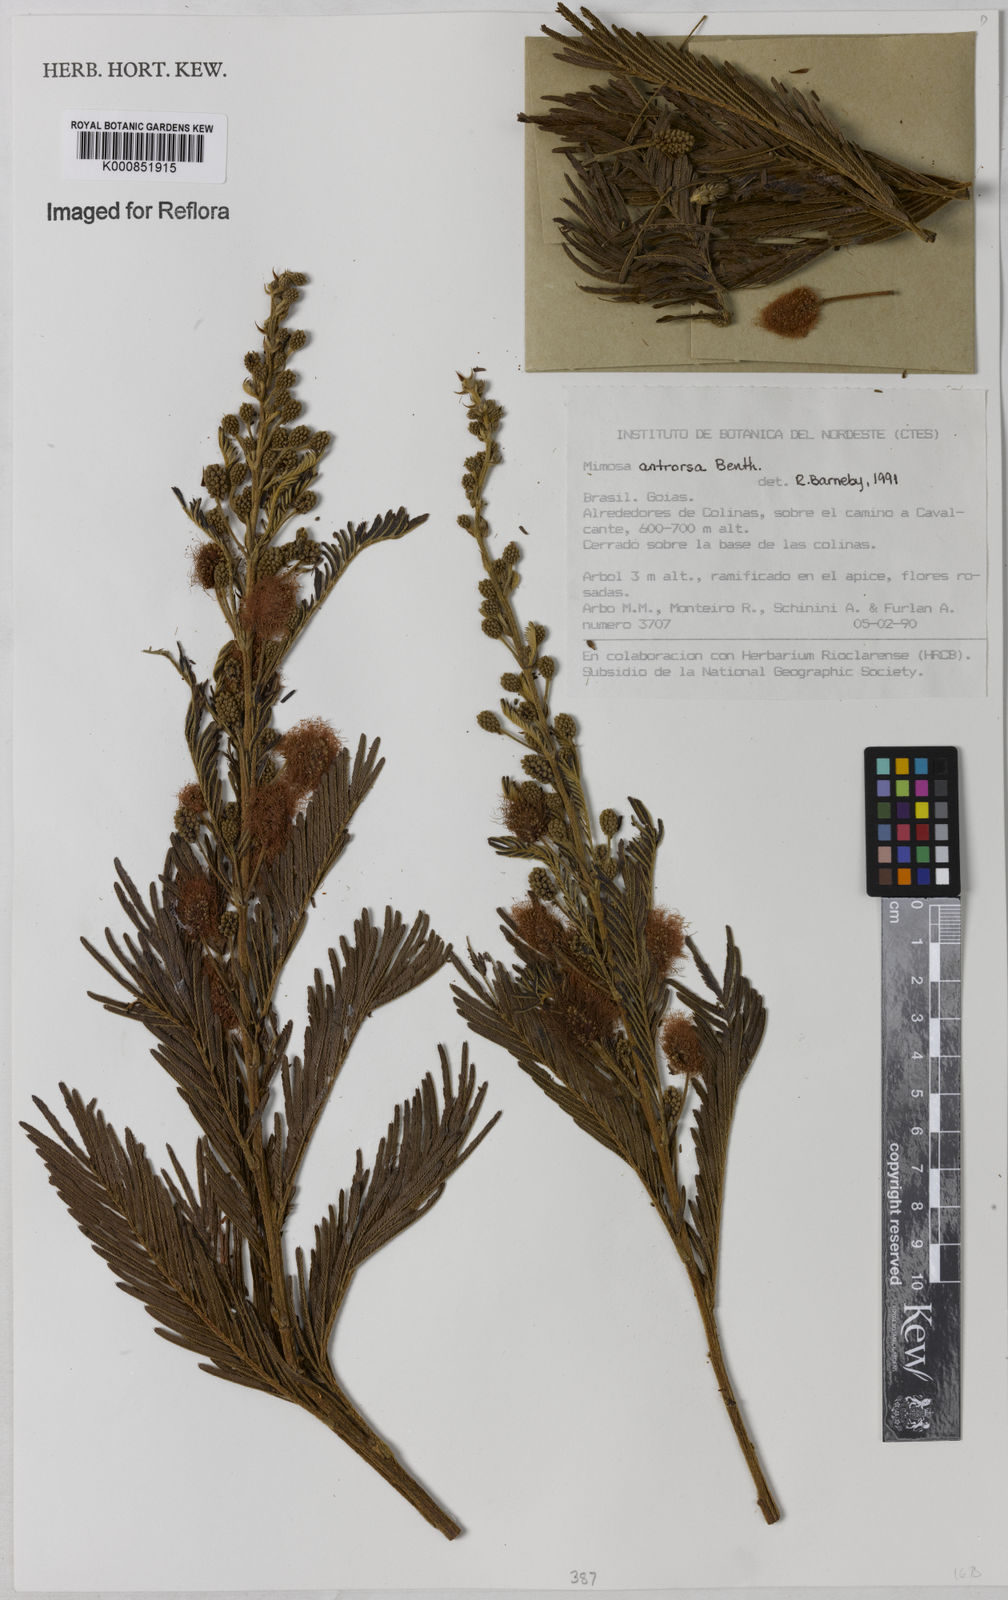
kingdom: Plantae
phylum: Tracheophyta
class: Magnoliopsida
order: Fabales
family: Fabaceae
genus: Mimosa
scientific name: Mimosa antrorsa
